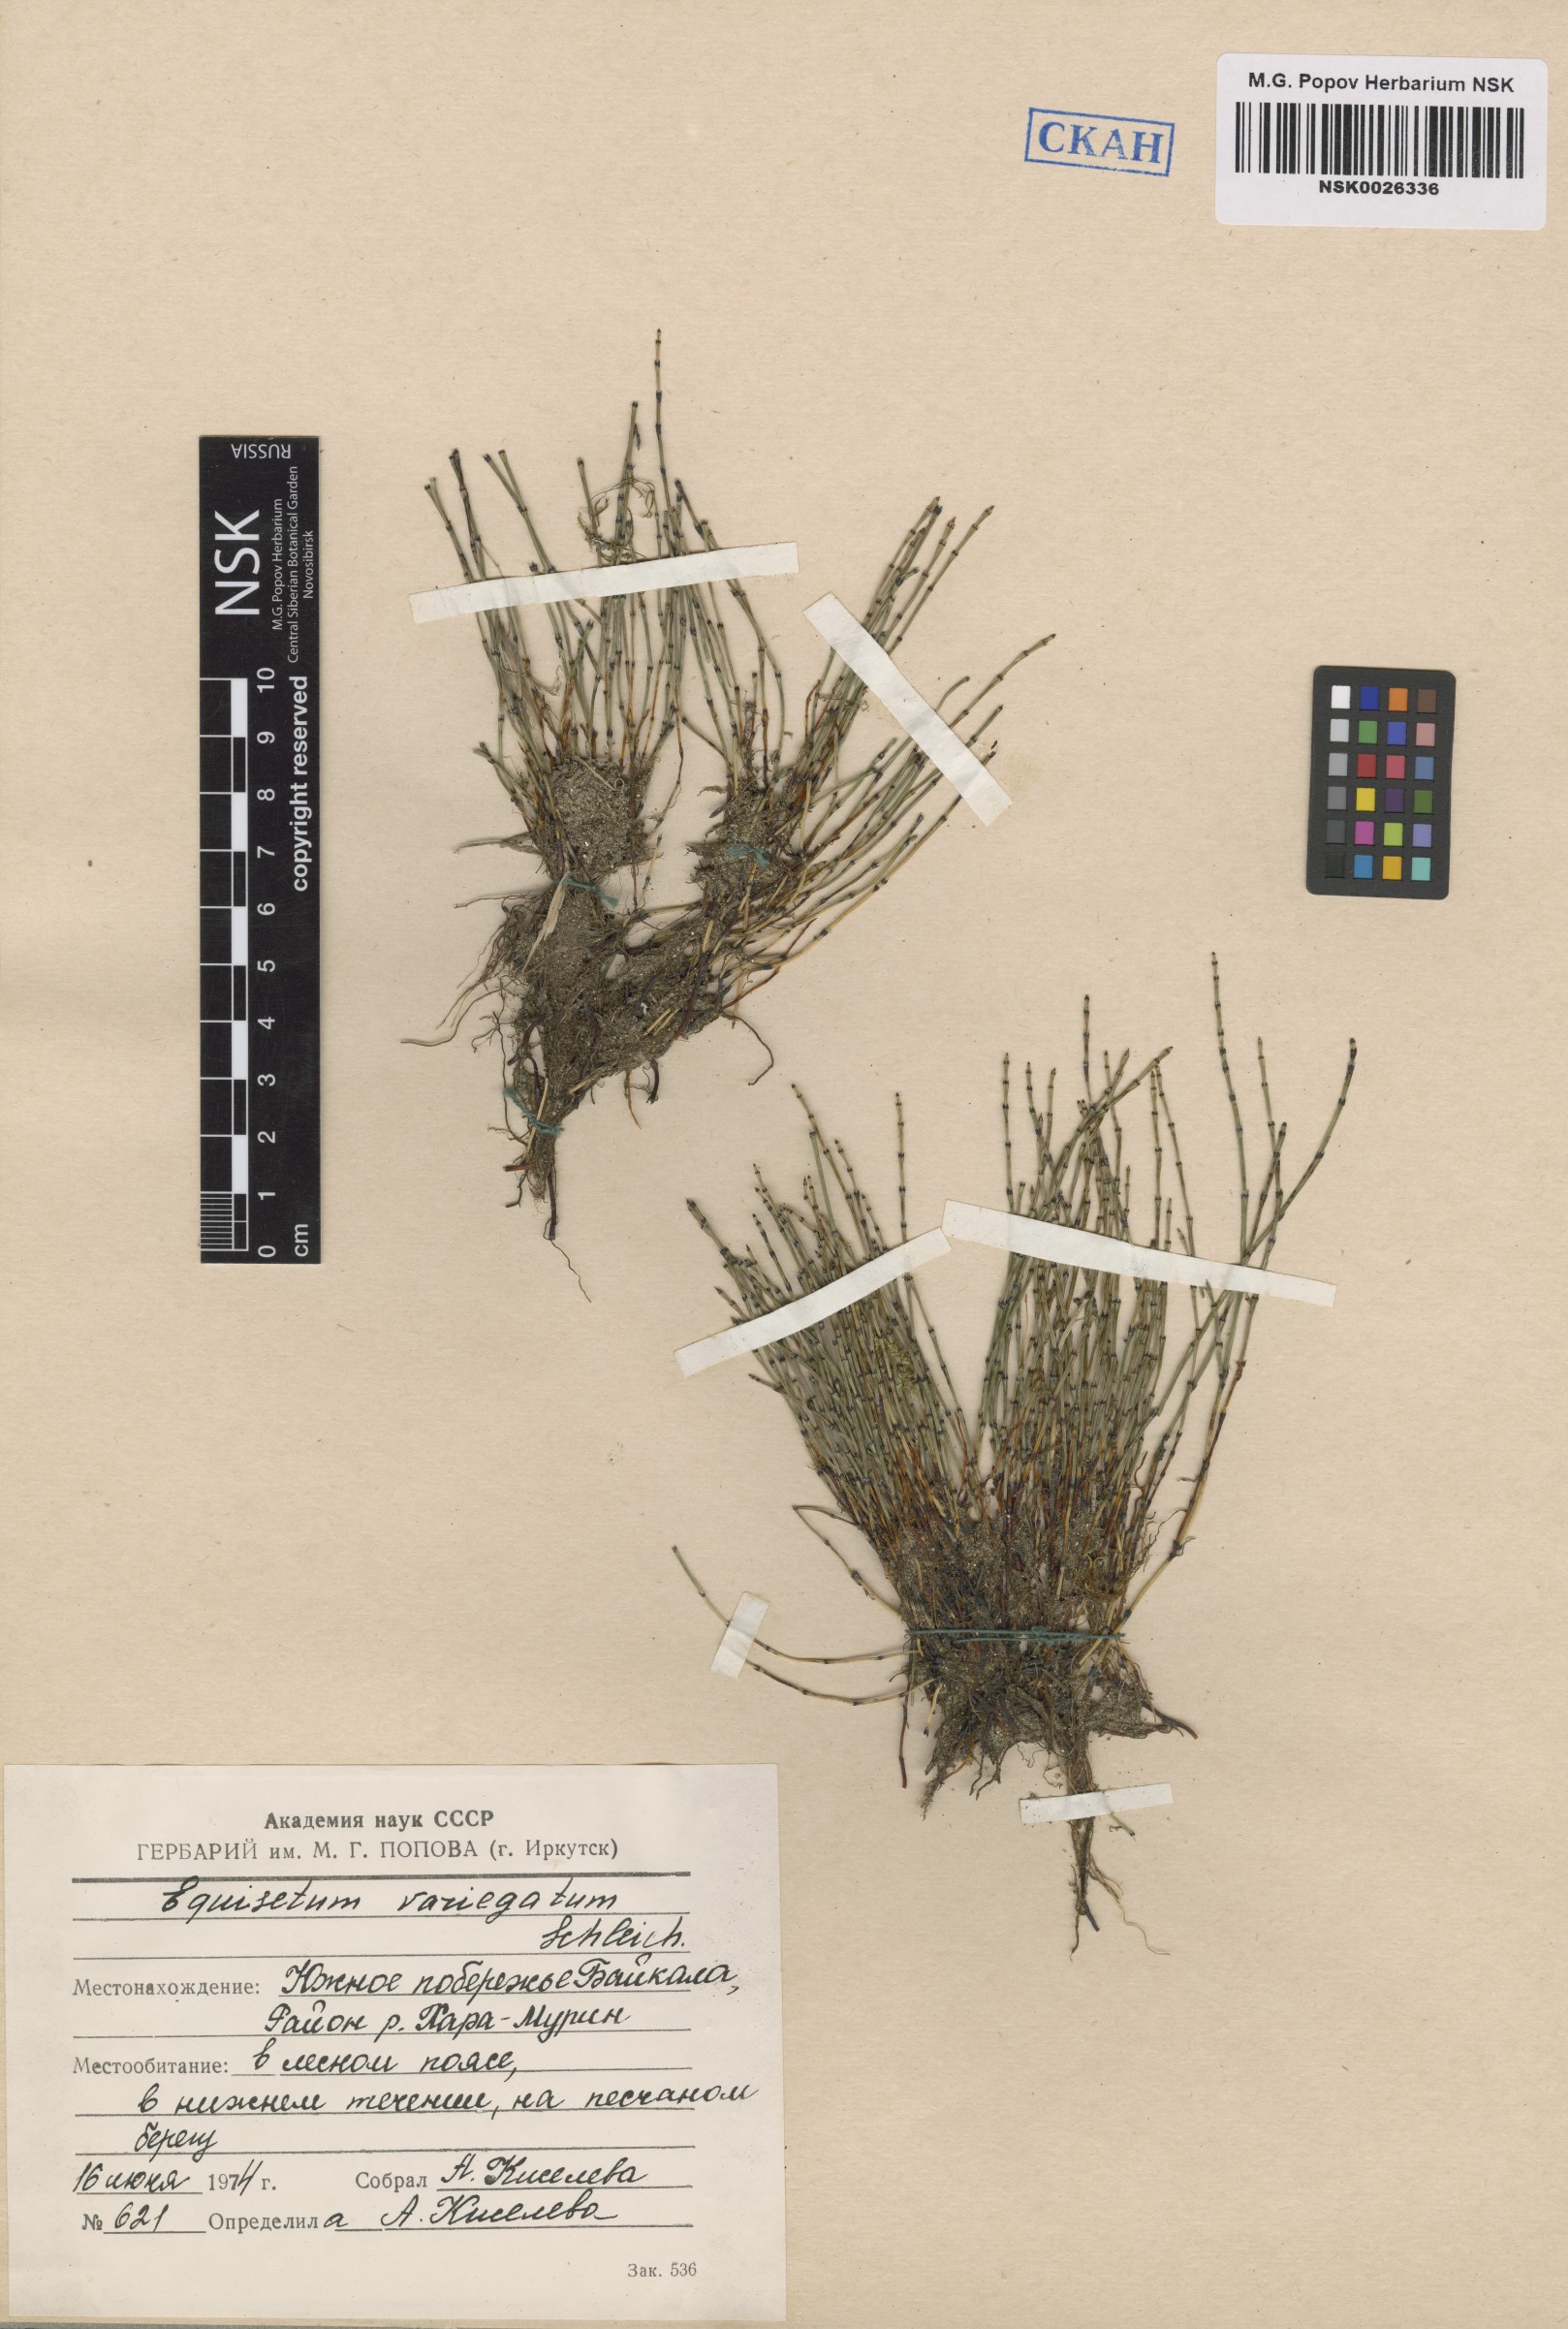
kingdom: Plantae
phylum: Tracheophyta
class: Polypodiopsida
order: Equisetales
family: Equisetaceae
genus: Equisetum
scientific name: Equisetum variegatum
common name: Variegated horsetail
